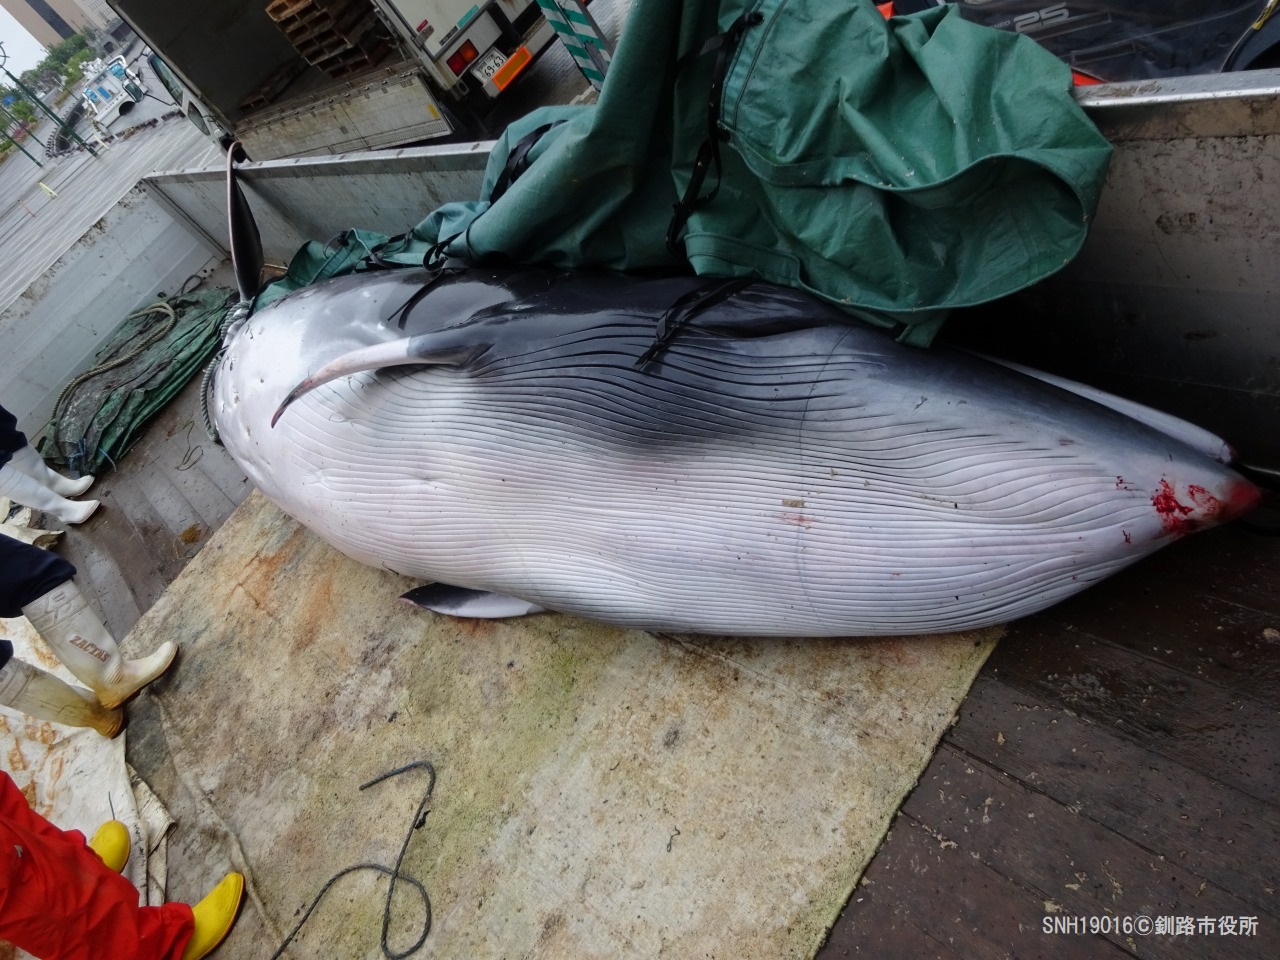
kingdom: Animalia
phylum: Chordata
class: Mammalia
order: Cetacea
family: Balaenopteridae
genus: Balaenoptera
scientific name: Balaenoptera acutorostrata
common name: Minke whale
